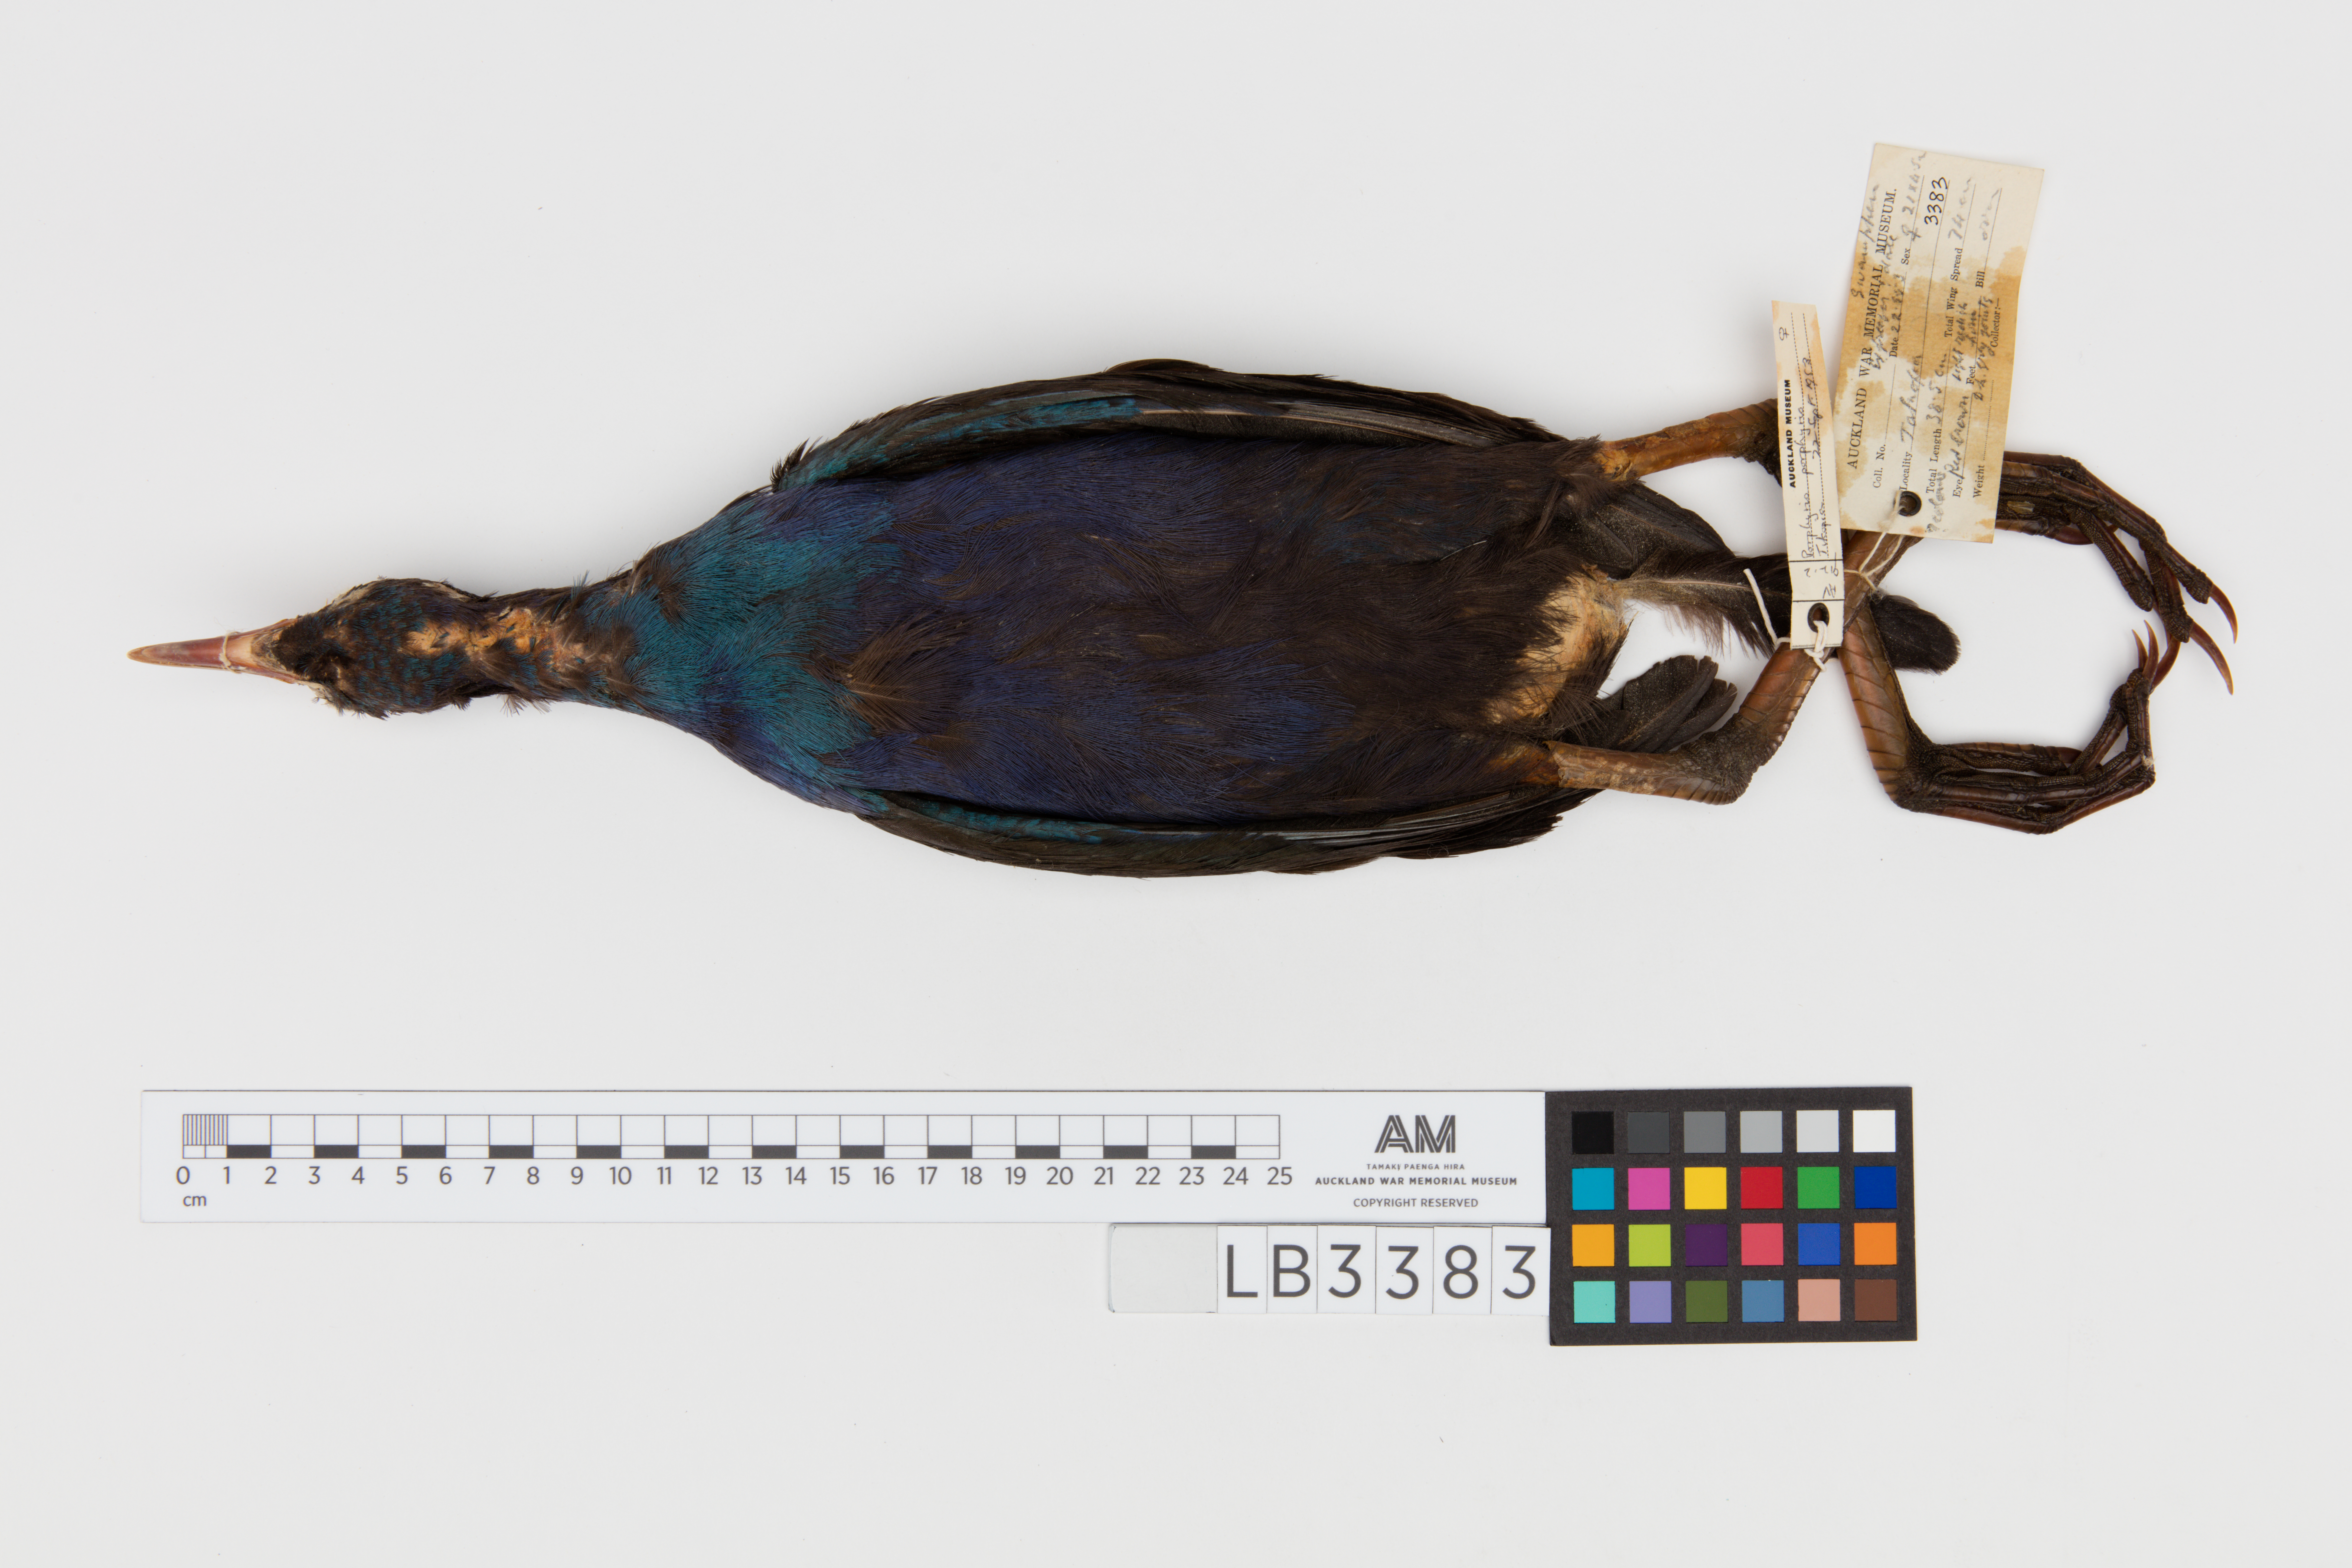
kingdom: Animalia
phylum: Chordata
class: Aves
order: Gruiformes
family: Rallidae
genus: Porphyrio
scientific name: Porphyrio melanotus
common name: Australasian swamphen
